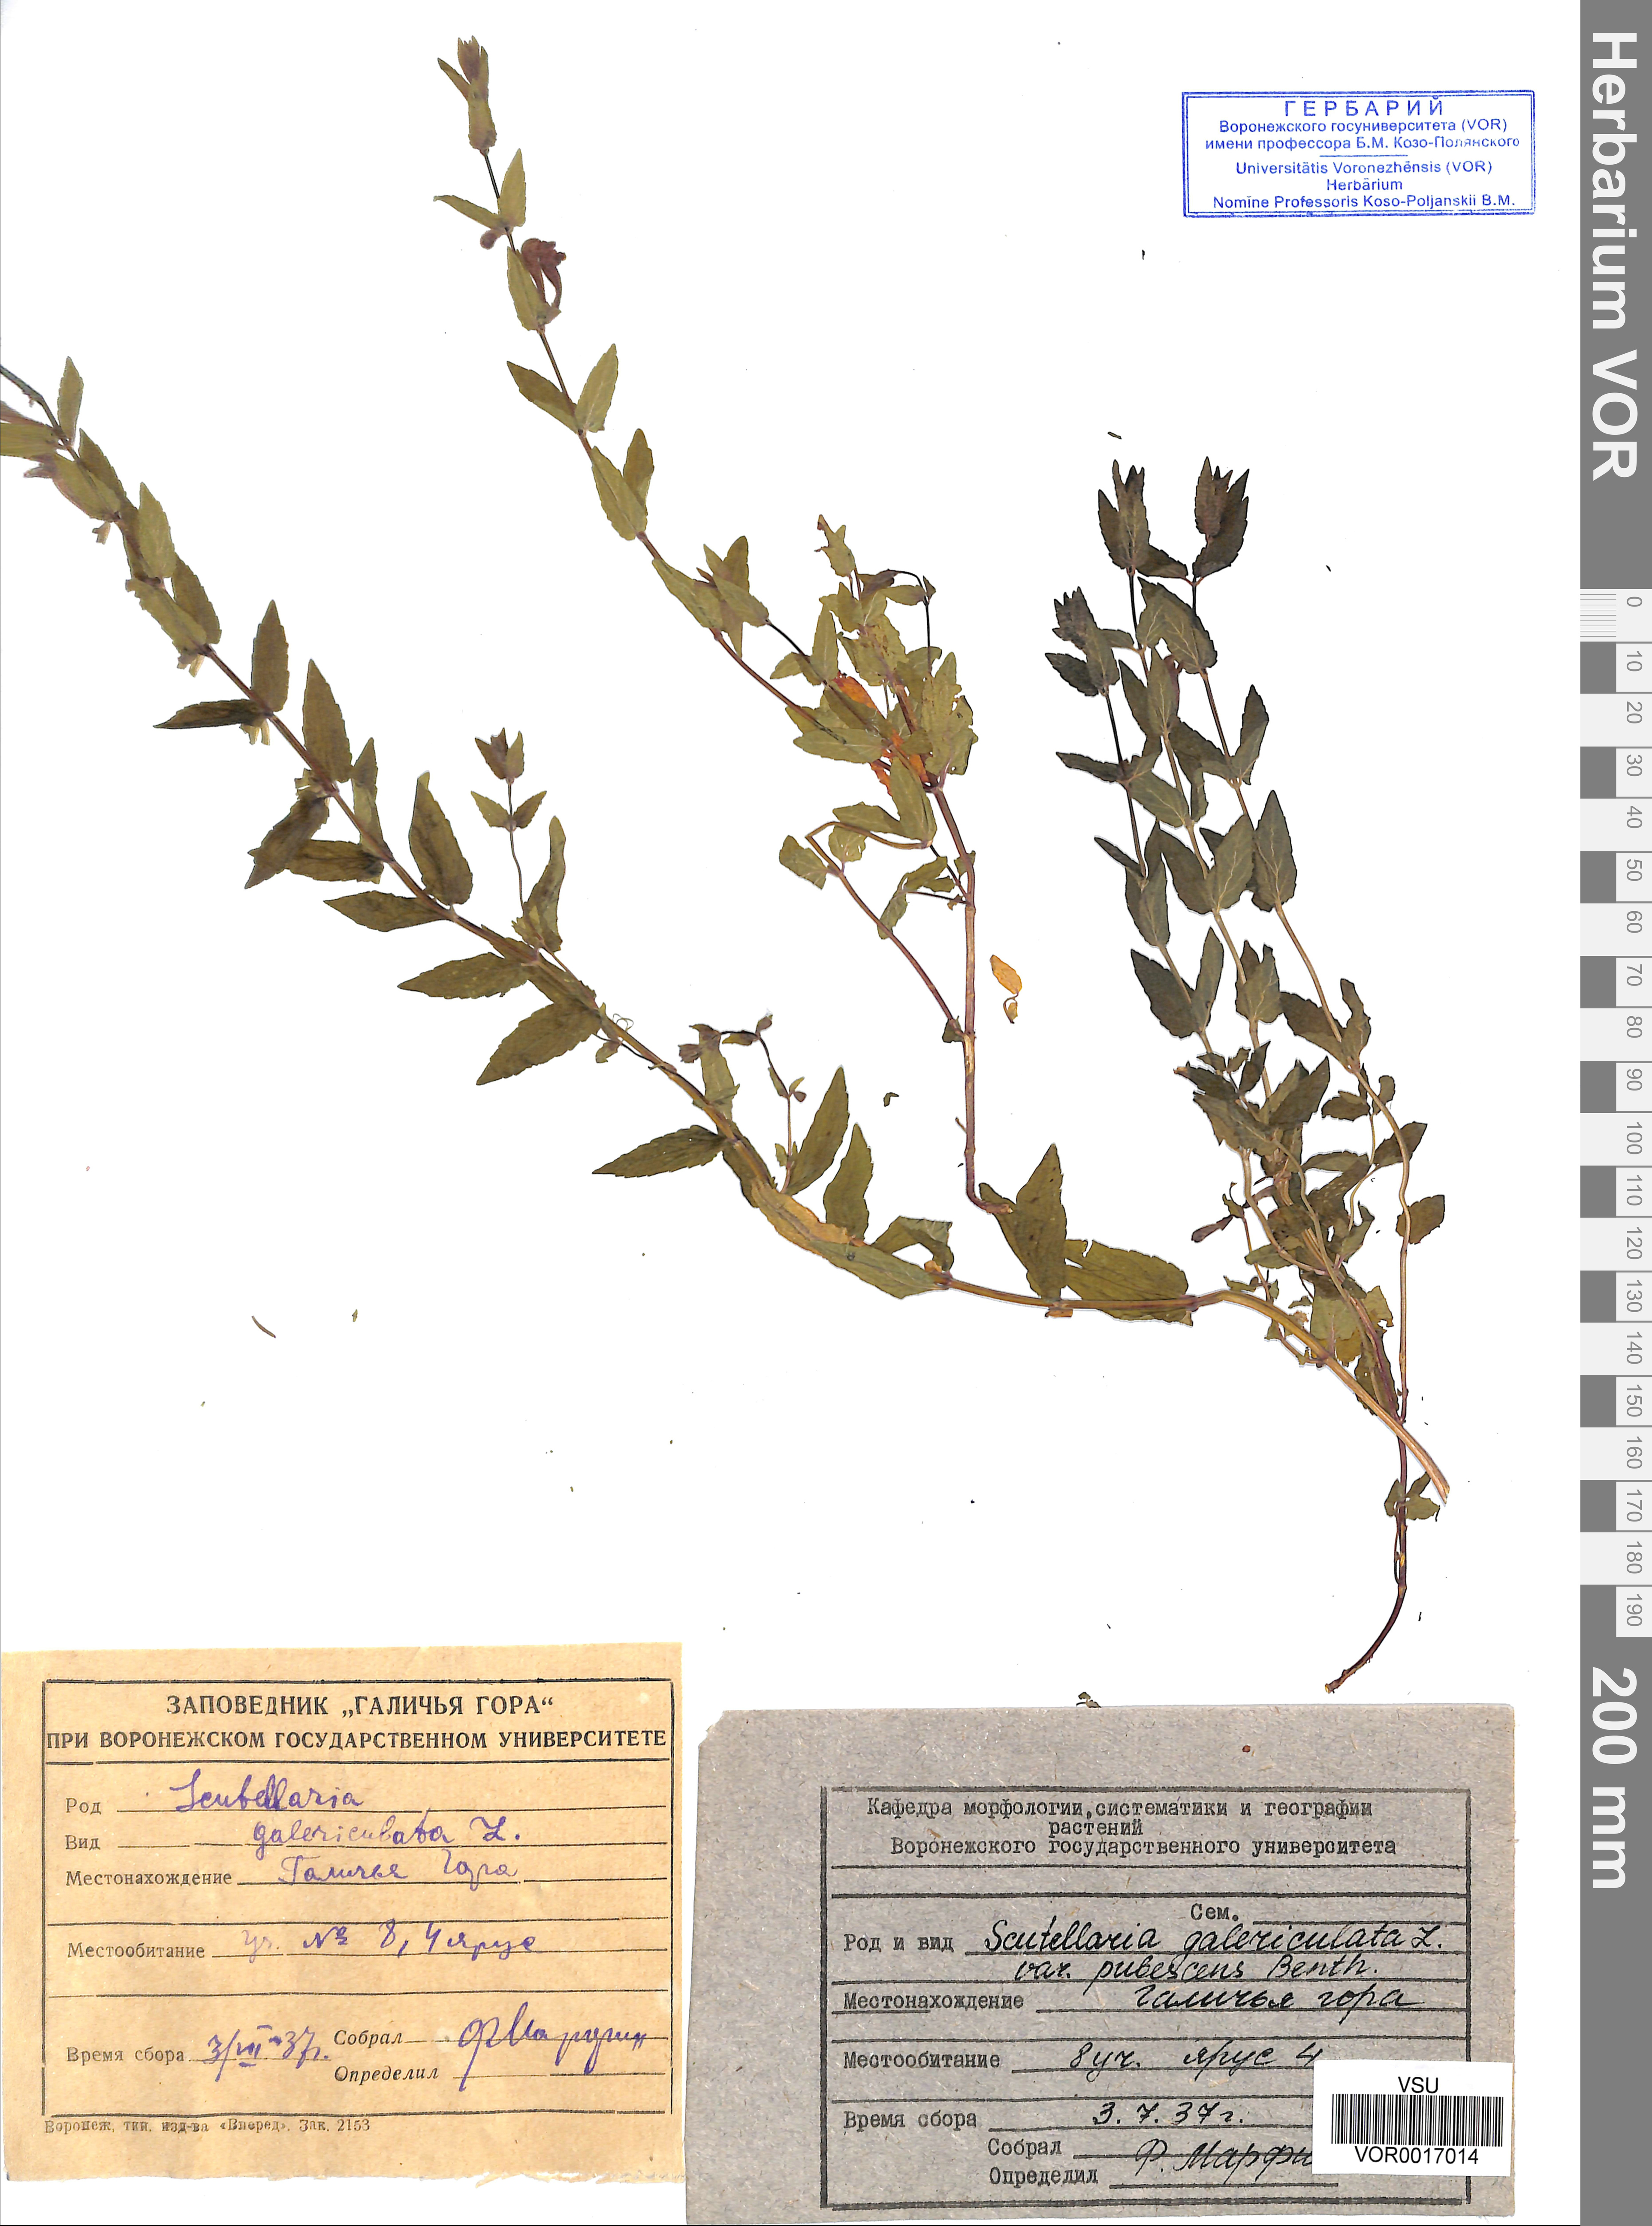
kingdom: Plantae
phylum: Tracheophyta
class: Magnoliopsida
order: Lamiales
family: Lamiaceae
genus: Scutellaria
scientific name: Scutellaria galericulata
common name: Skullcap
